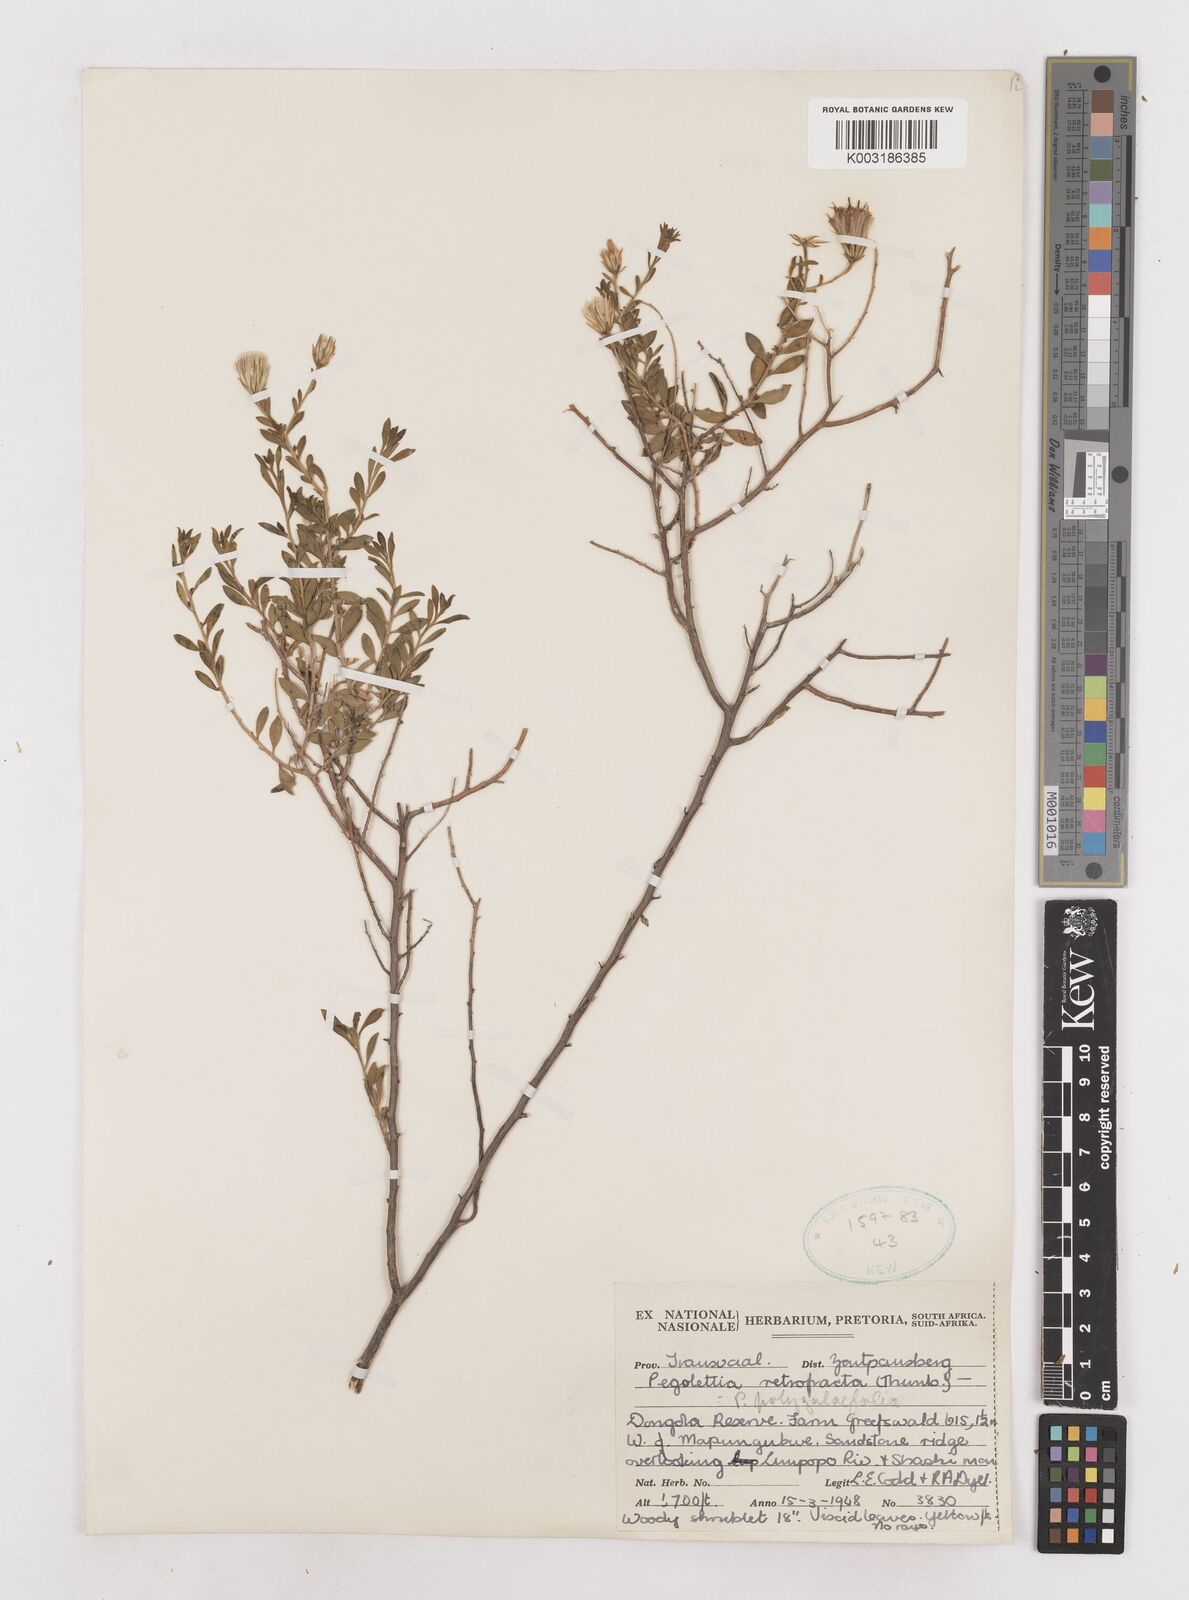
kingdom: Plantae
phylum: Tracheophyta
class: Magnoliopsida
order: Asterales
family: Asteraceae
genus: Pegolettia
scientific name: Pegolettia retrofracta
